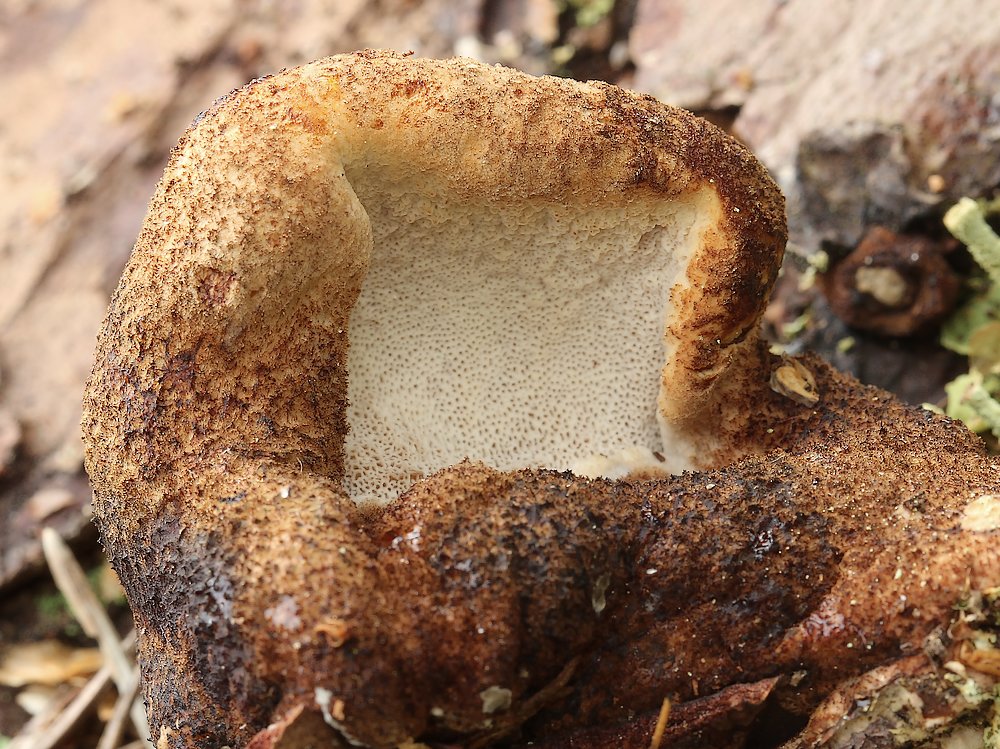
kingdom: Fungi
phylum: Basidiomycota
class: Agaricomycetes
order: Polyporales
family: Ischnodermataceae
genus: Ischnoderma
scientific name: Ischnoderma benzoinum
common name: gran-tjæreporesvamp
